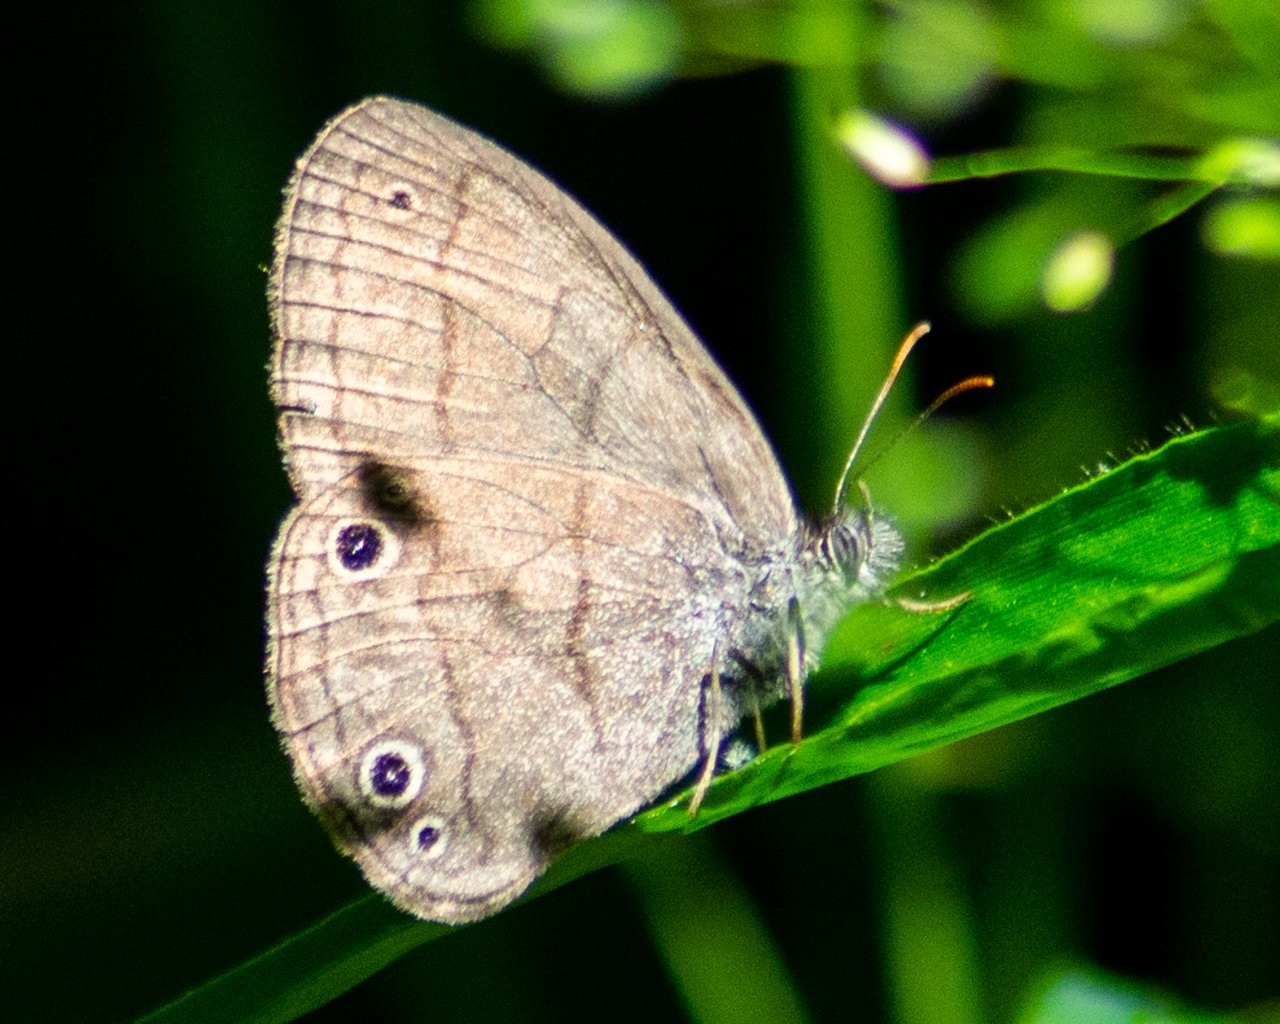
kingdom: Animalia
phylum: Arthropoda
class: Insecta
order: Lepidoptera
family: Nymphalidae
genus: Hermeuptychia
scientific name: Hermeuptychia hermes
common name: Carolina Satyr
